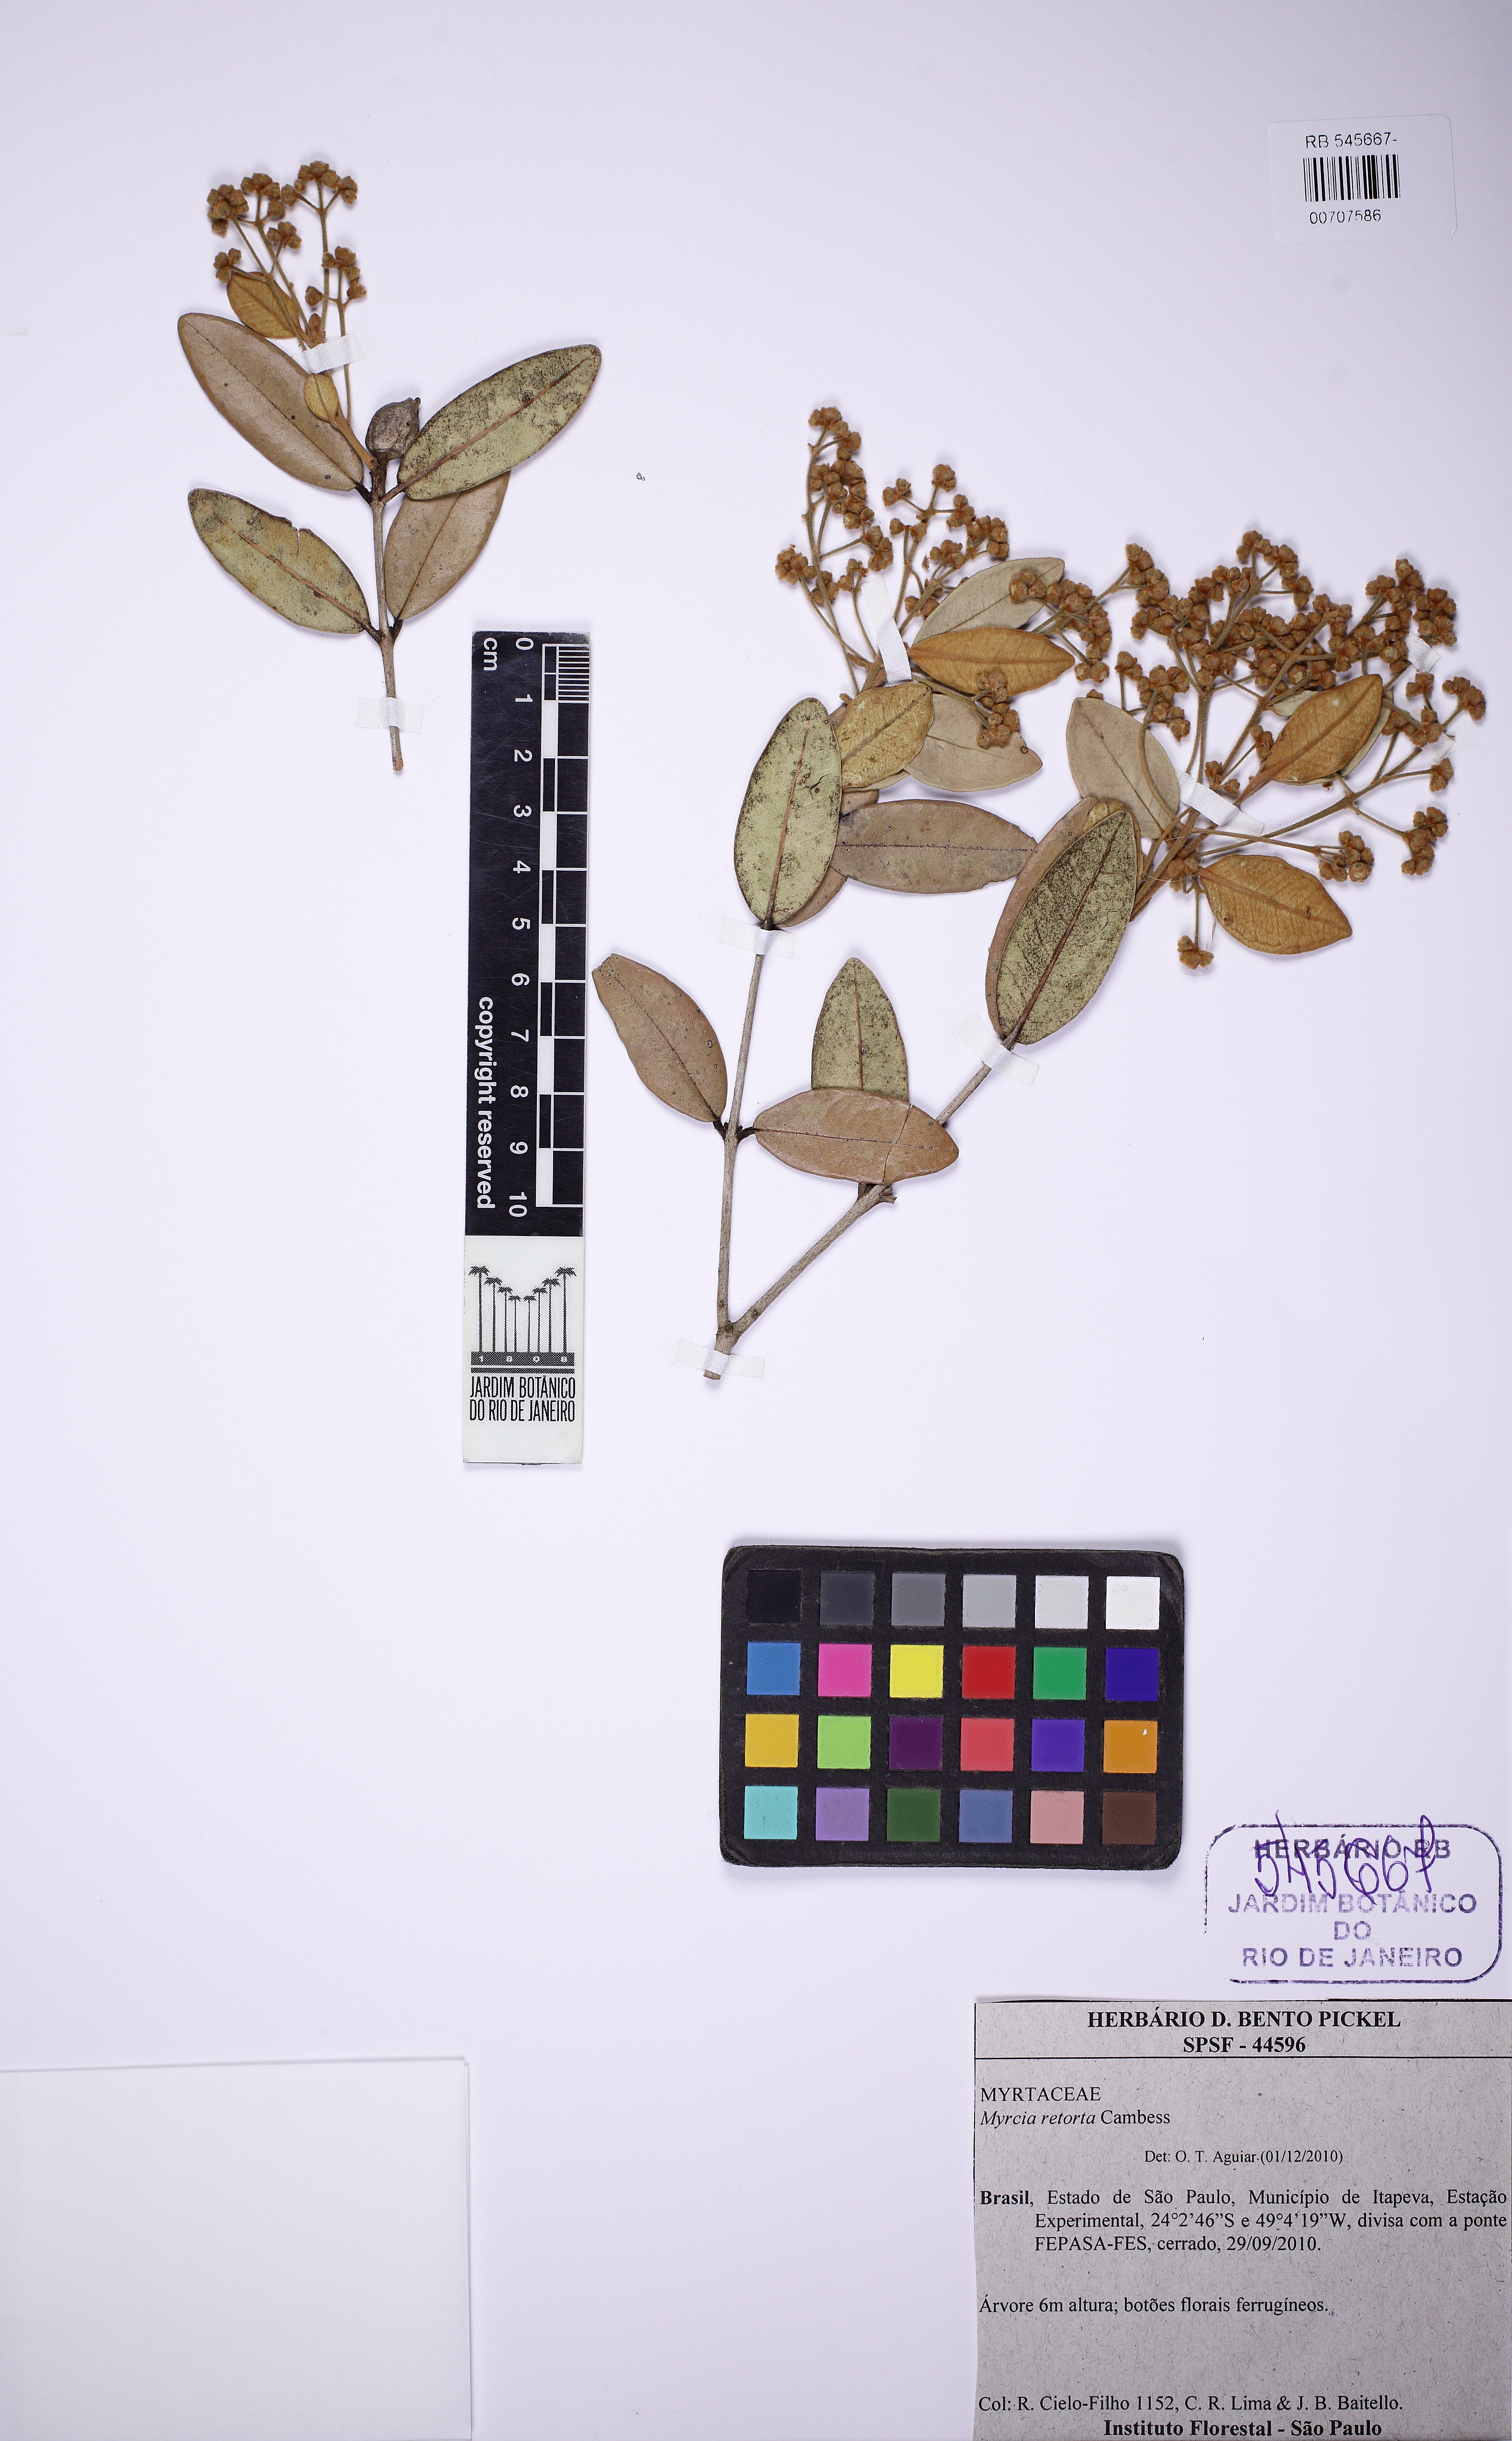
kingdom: Plantae
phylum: Tracheophyta
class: Magnoliopsida
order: Myrtales
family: Myrtaceae
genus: Myrcia
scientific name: Myrcia retorta
